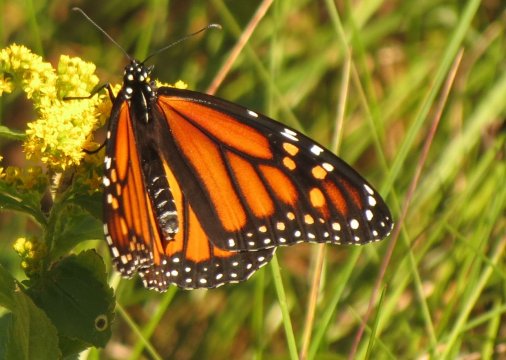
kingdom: Animalia
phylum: Arthropoda
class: Insecta
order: Lepidoptera
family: Nymphalidae
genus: Danaus
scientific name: Danaus plexippus
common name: Monarch
